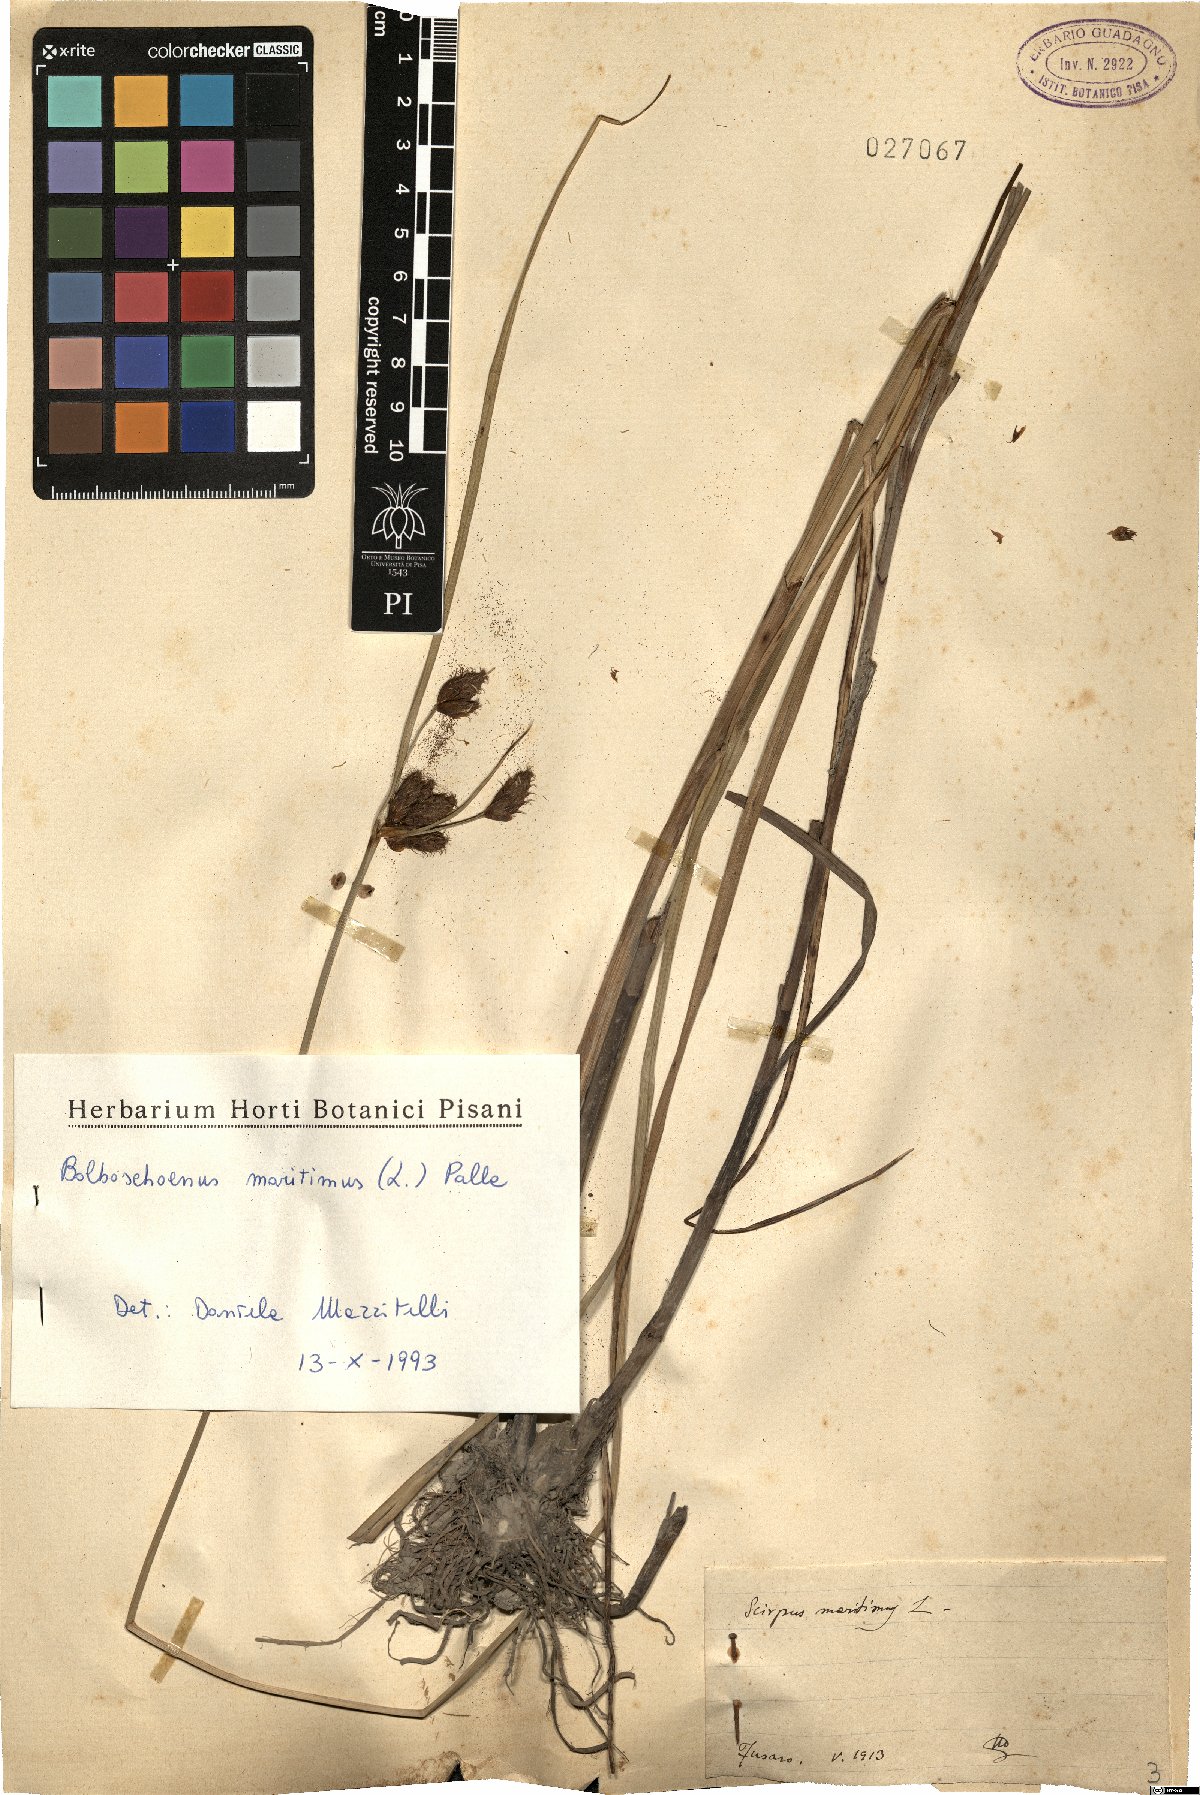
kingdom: Plantae
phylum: Tracheophyta
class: Liliopsida
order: Poales
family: Cyperaceae
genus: Bolboschoenus
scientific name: Bolboschoenus maritimus
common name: Sea club-rush
